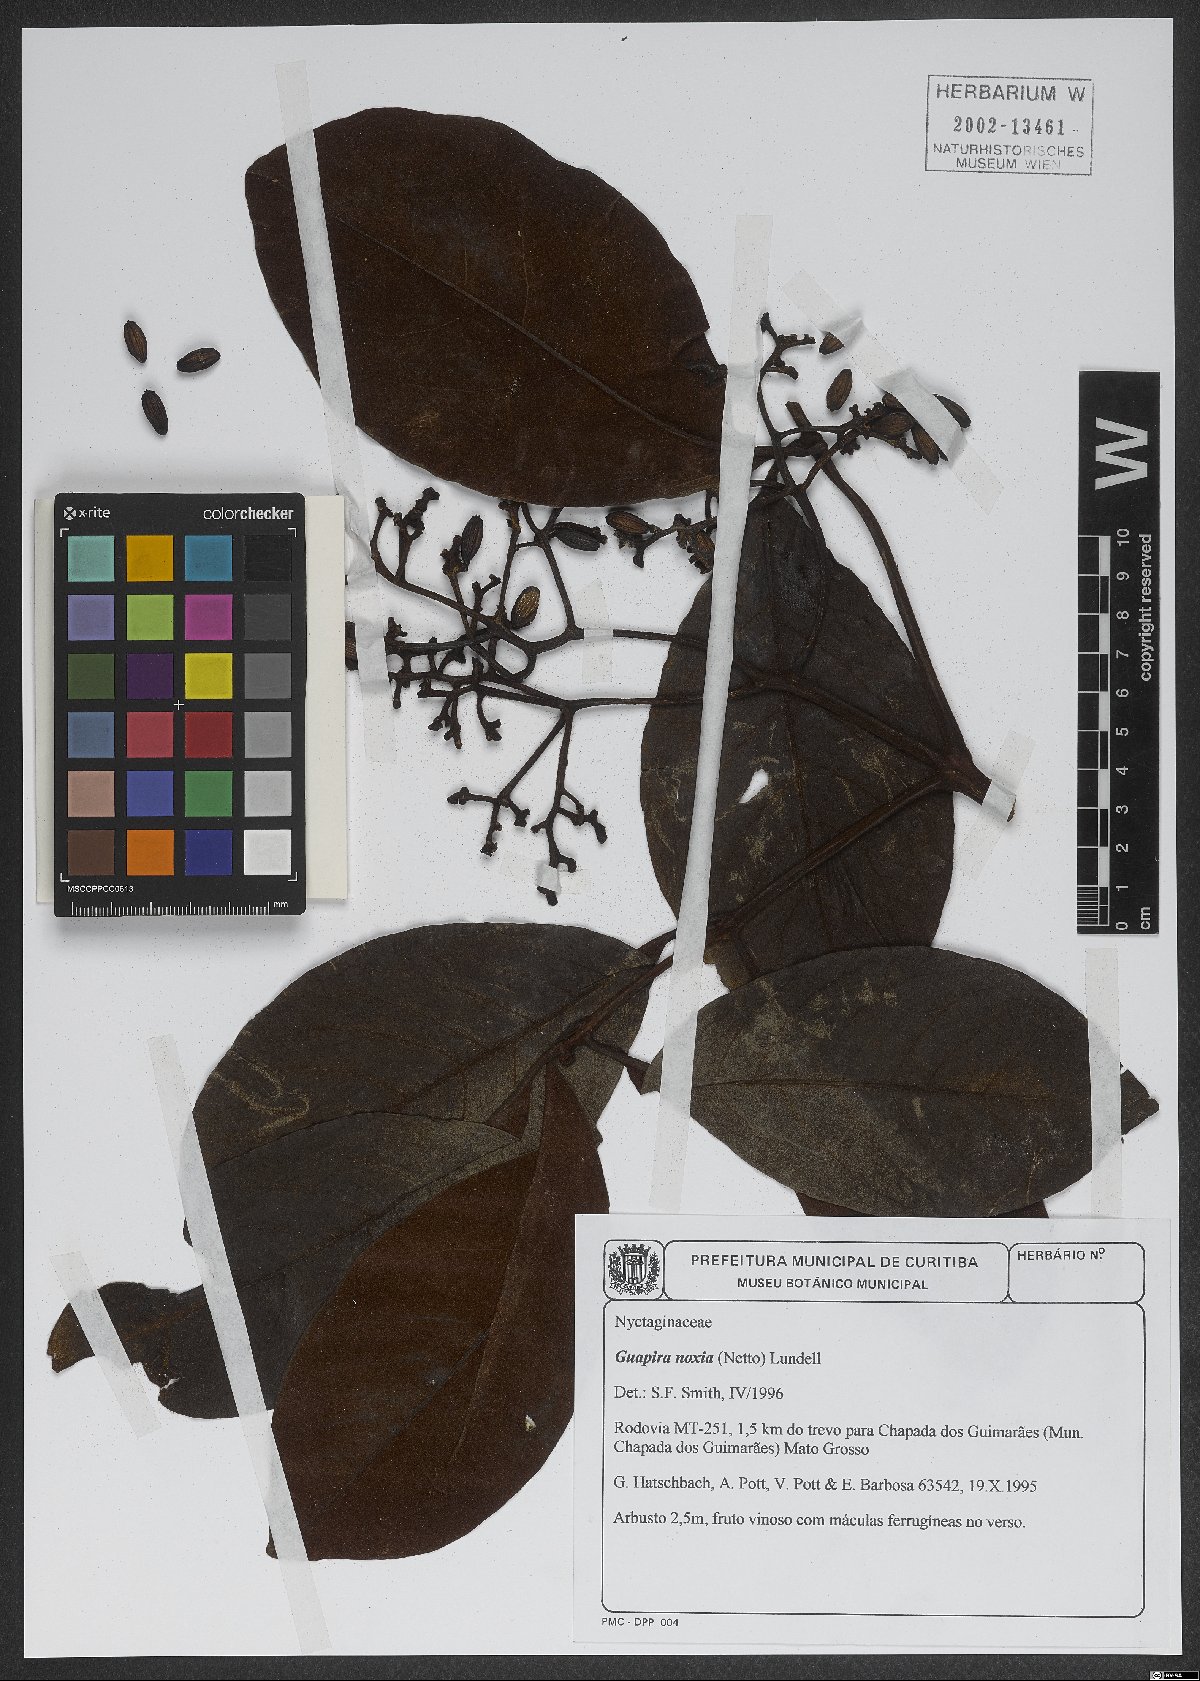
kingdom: Plantae
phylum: Tracheophyta
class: Magnoliopsida
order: Caryophyllales
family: Nyctaginaceae
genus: Guapira
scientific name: Guapira noxia
